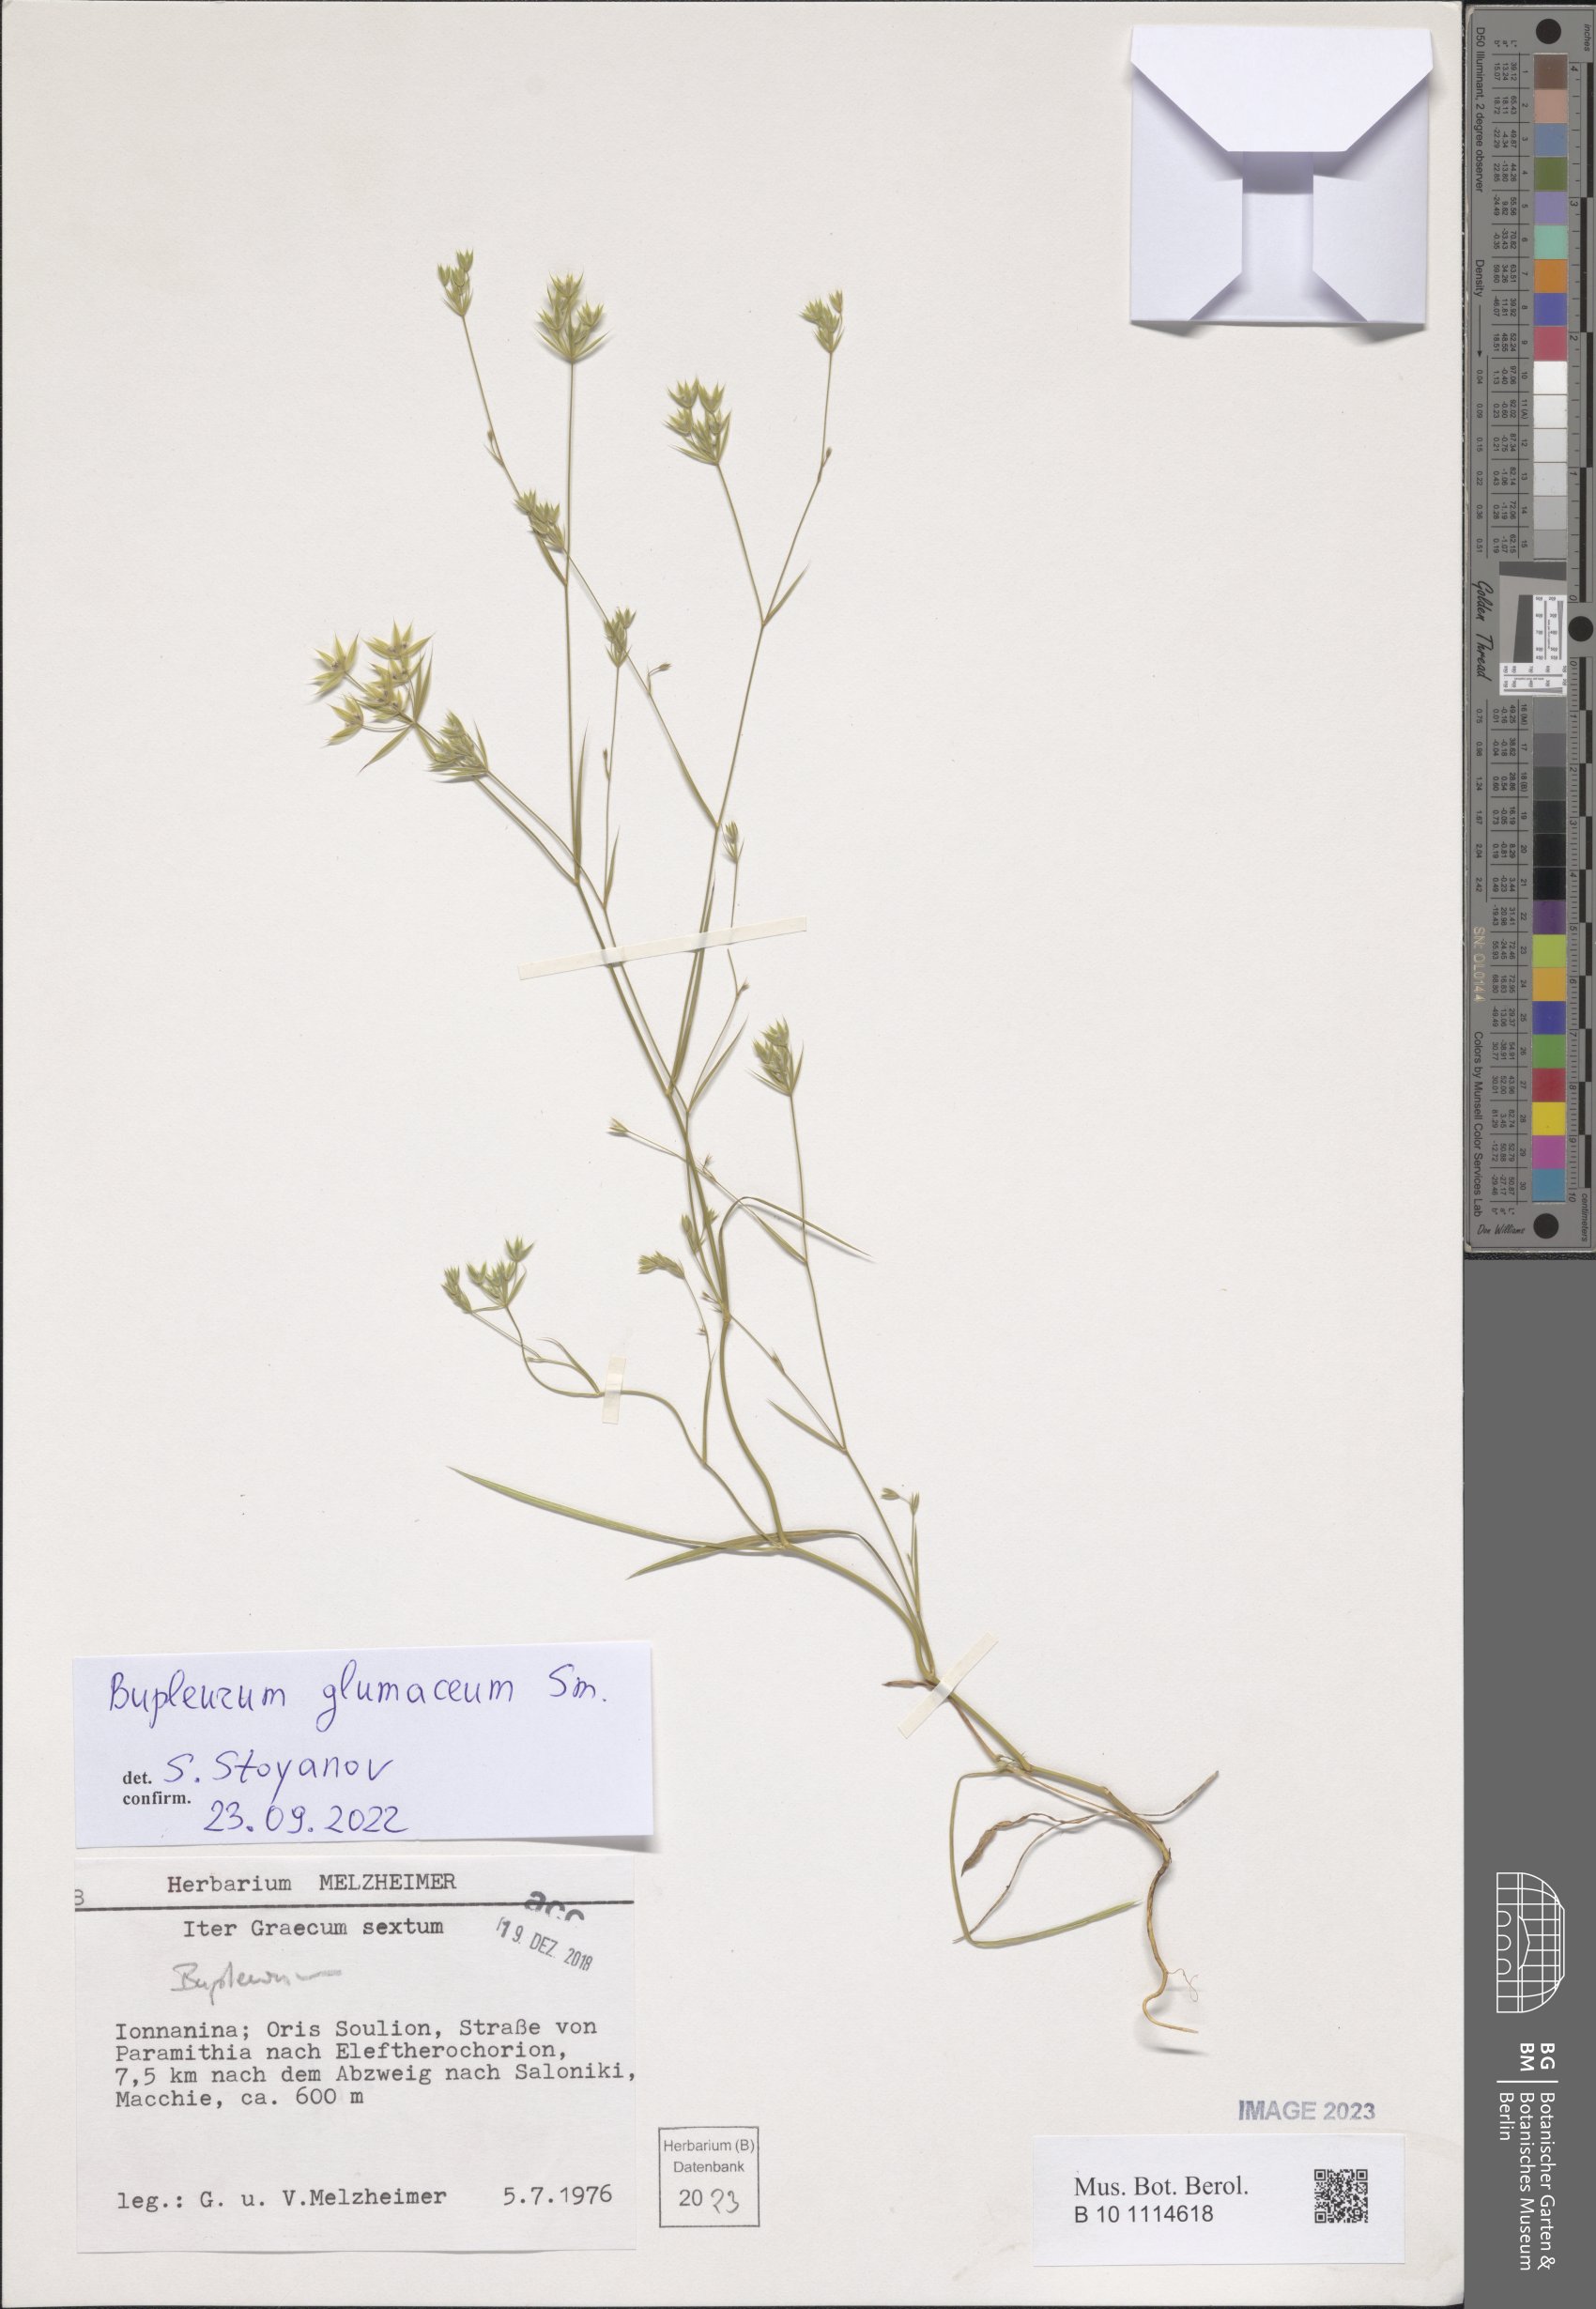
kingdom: Plantae
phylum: Tracheophyta
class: Magnoliopsida
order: Apiales
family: Apiaceae
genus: Bupleurum
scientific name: Bupleurum glumaceum
